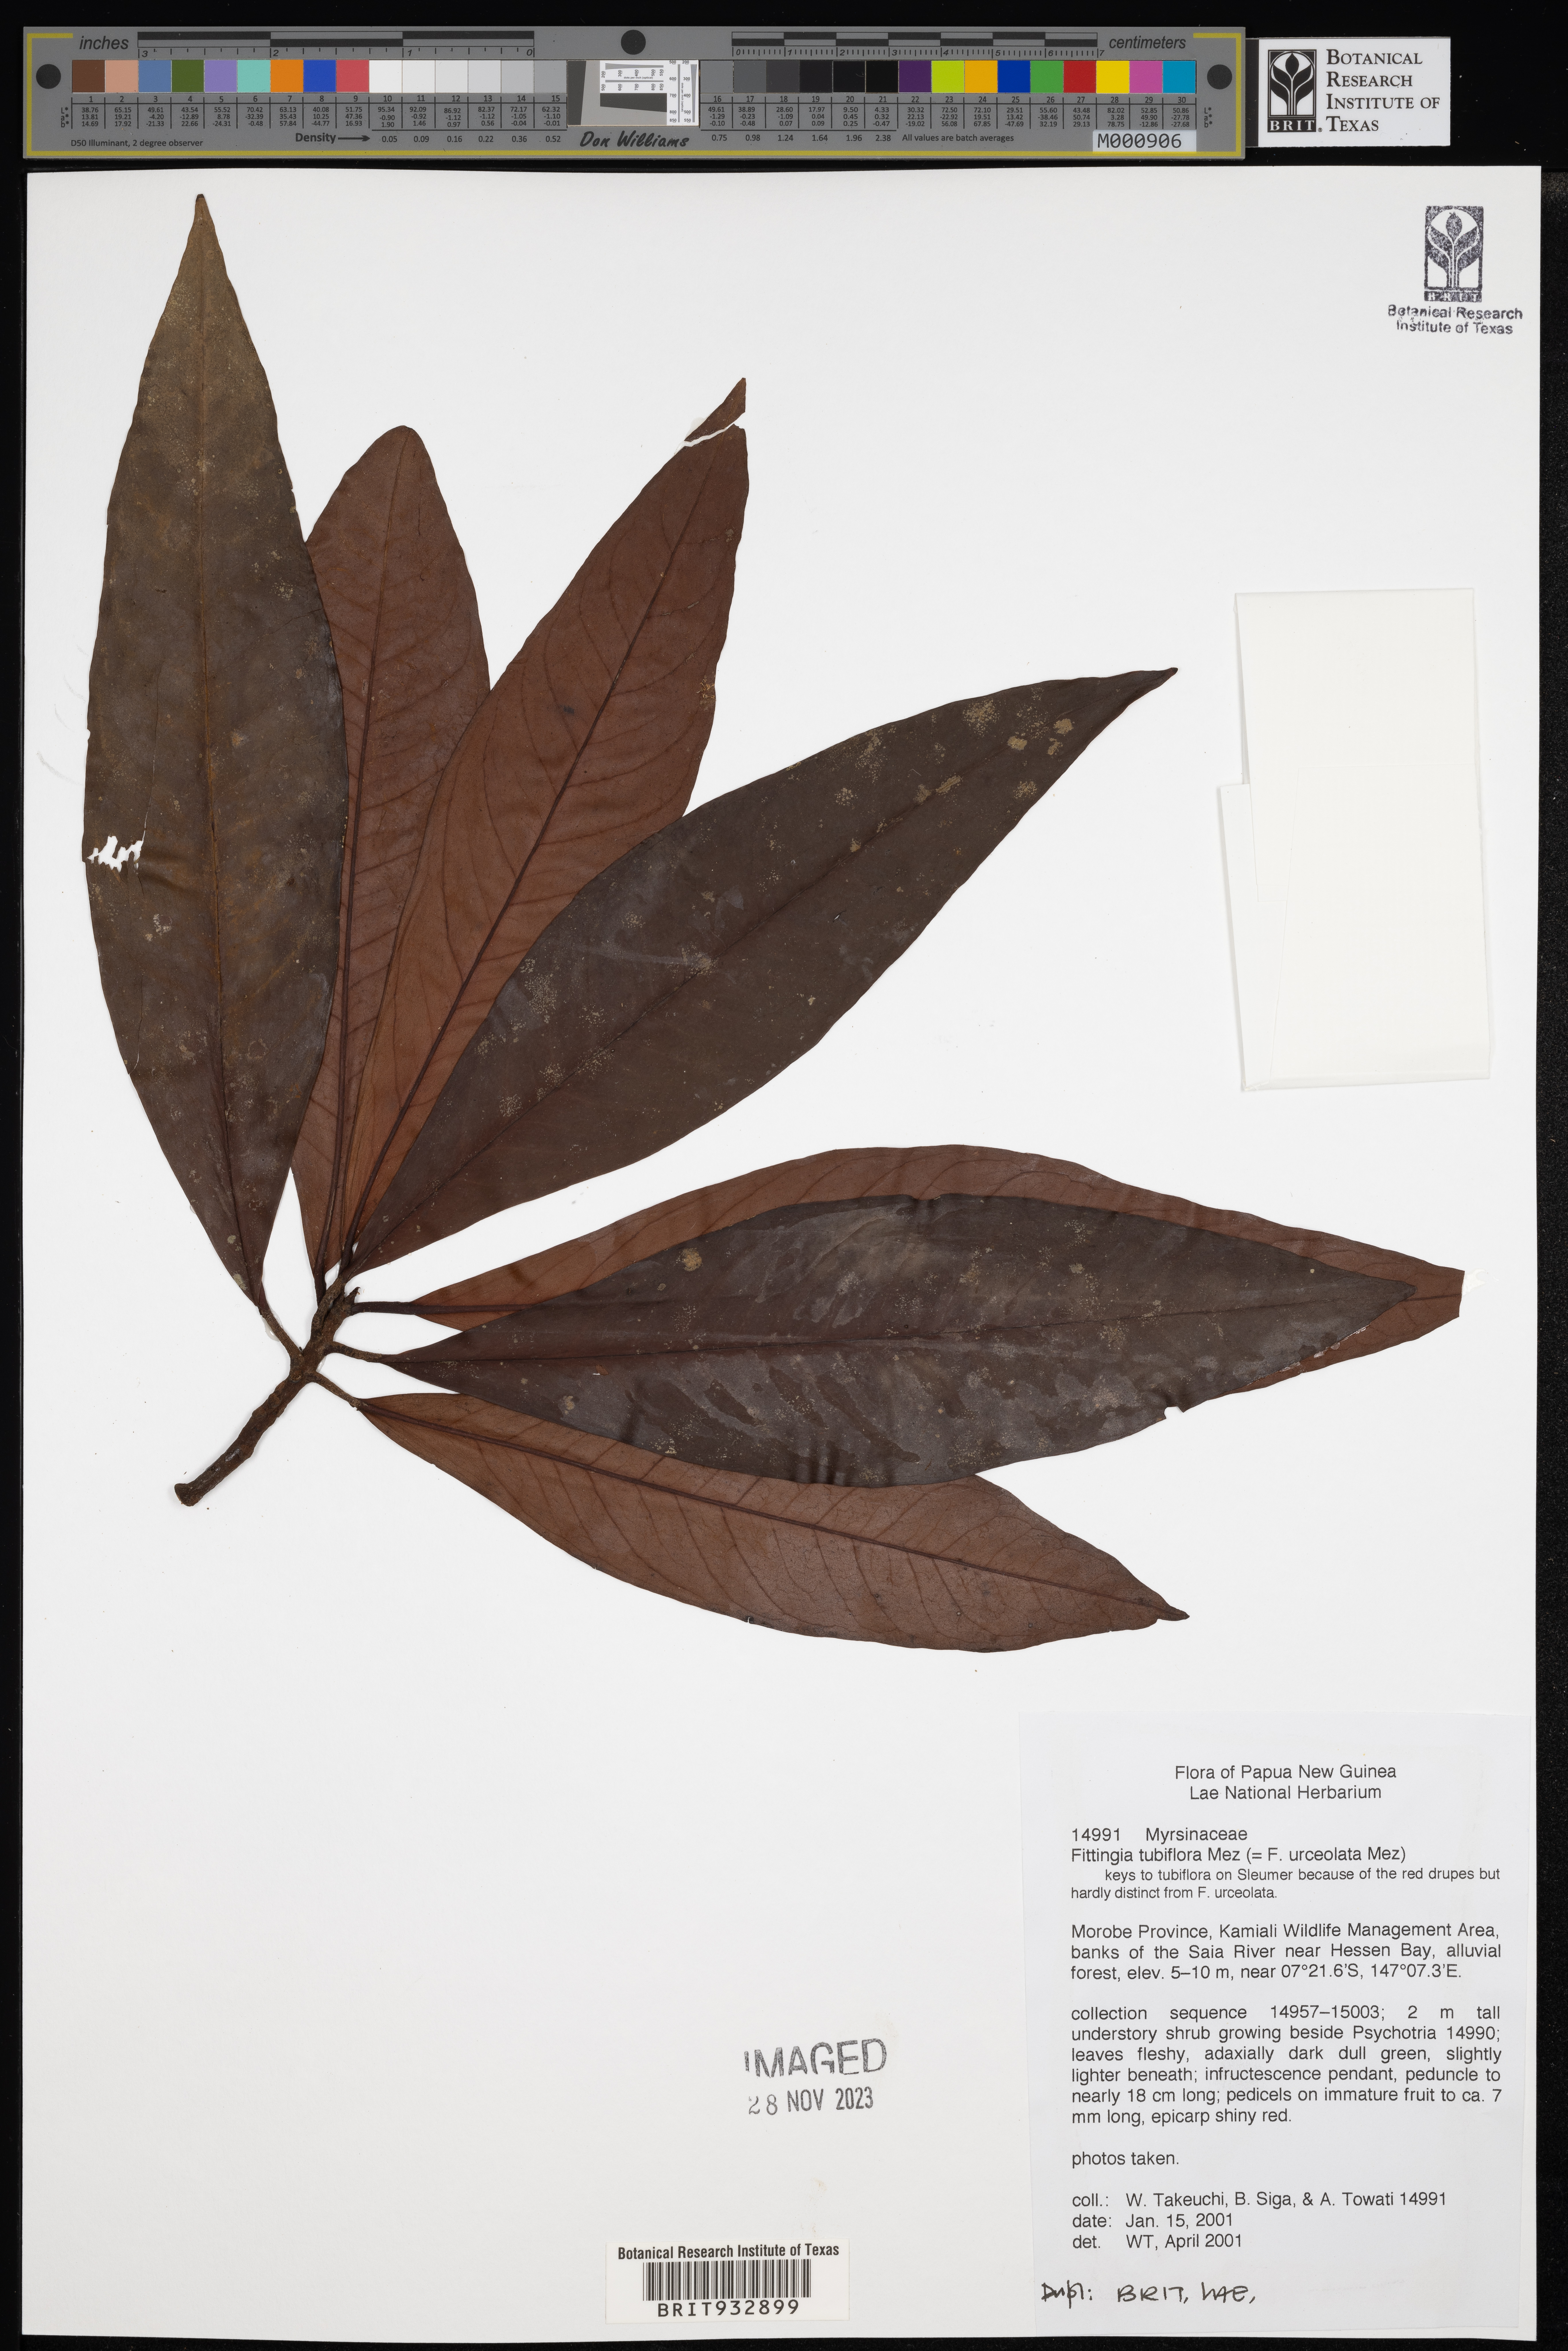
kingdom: Plantae
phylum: Tracheophyta
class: Magnoliopsida
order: Ericales
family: Primulaceae
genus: Fittingia
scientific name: Fittingia
